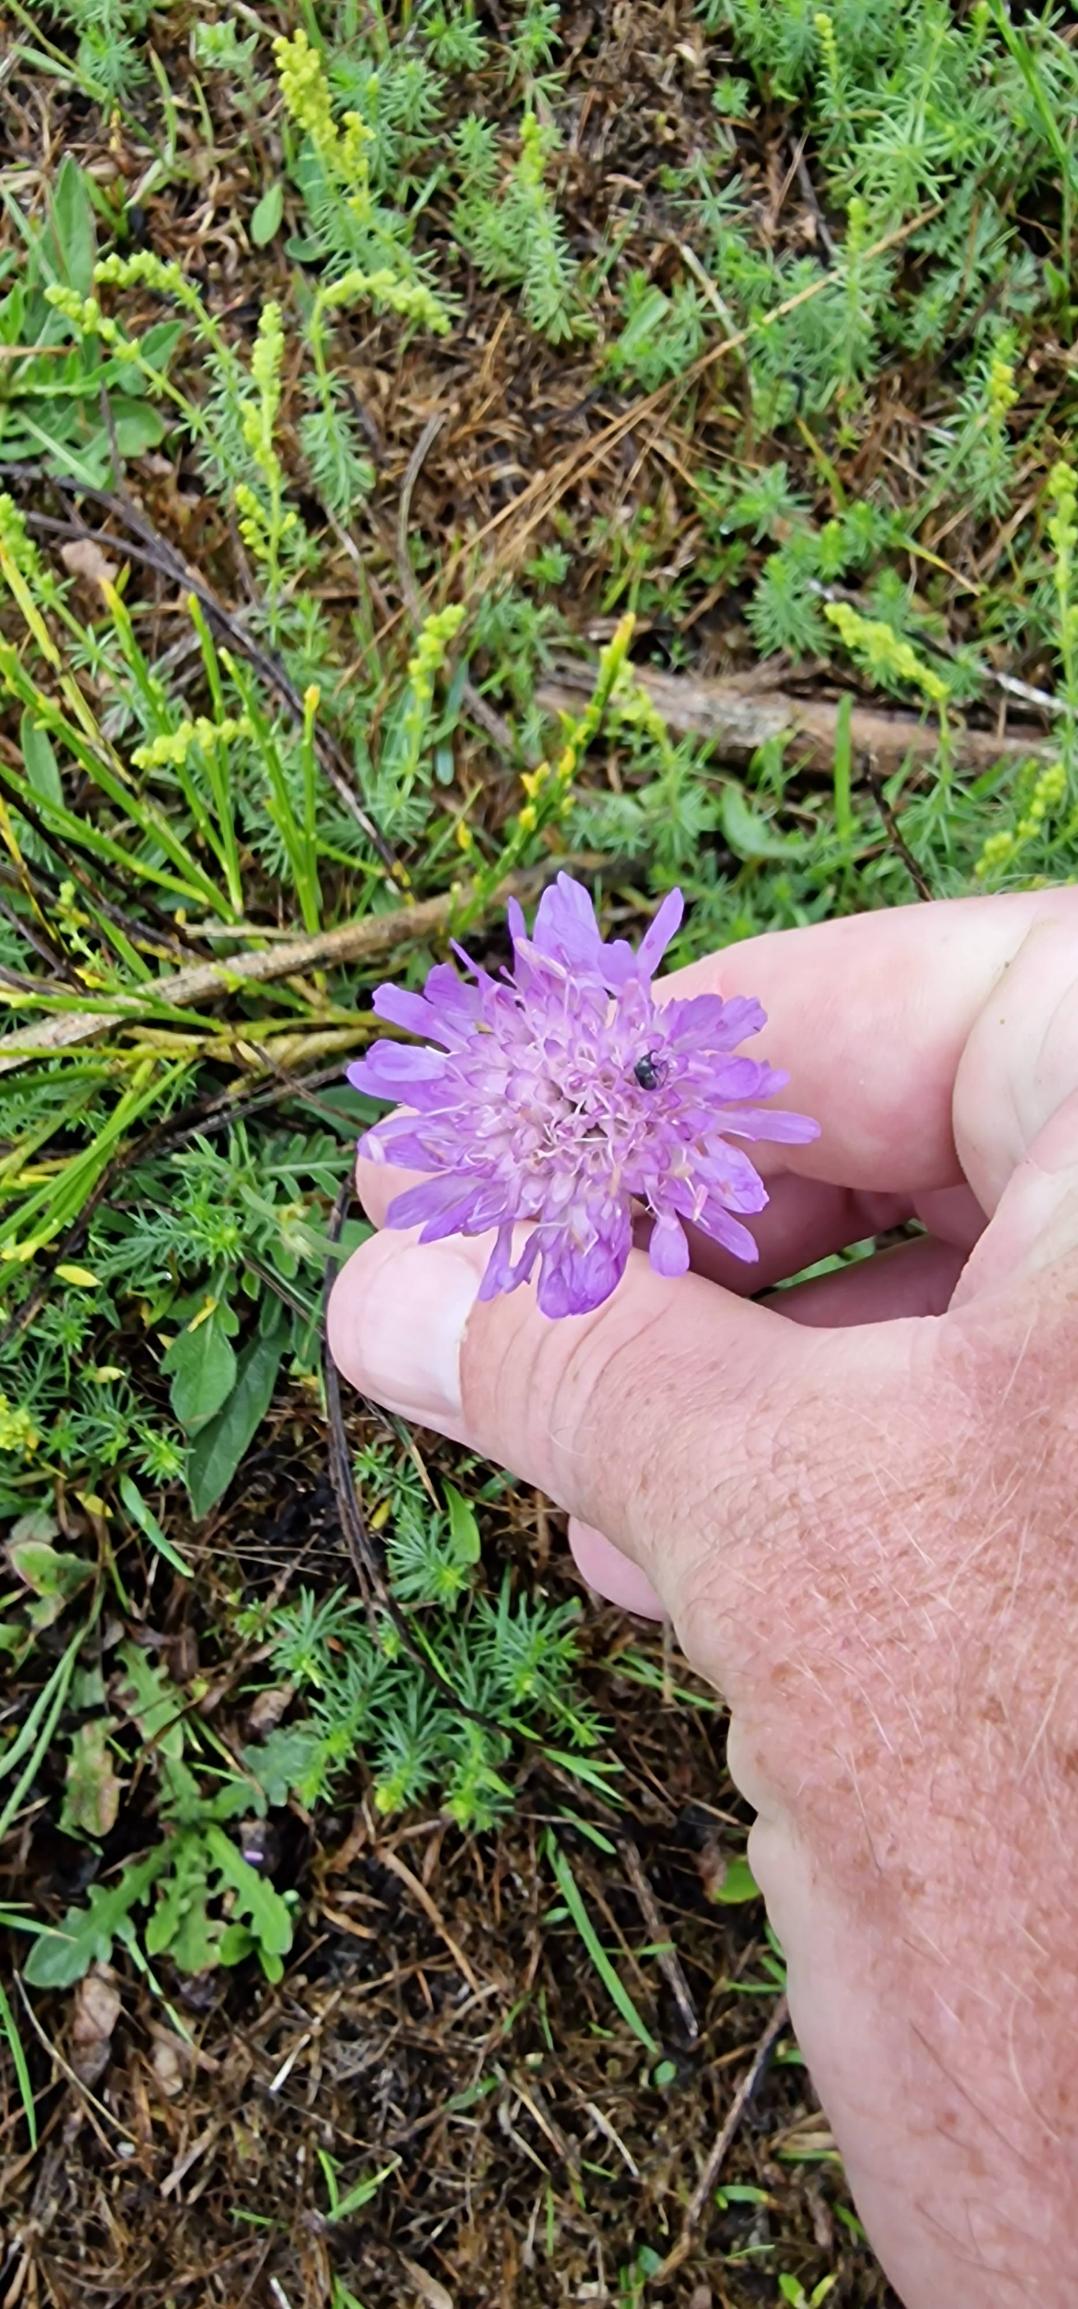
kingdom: Plantae
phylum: Tracheophyta
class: Magnoliopsida
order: Dipsacales
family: Caprifoliaceae
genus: Knautia
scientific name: Knautia arvensis
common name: Blåhat
